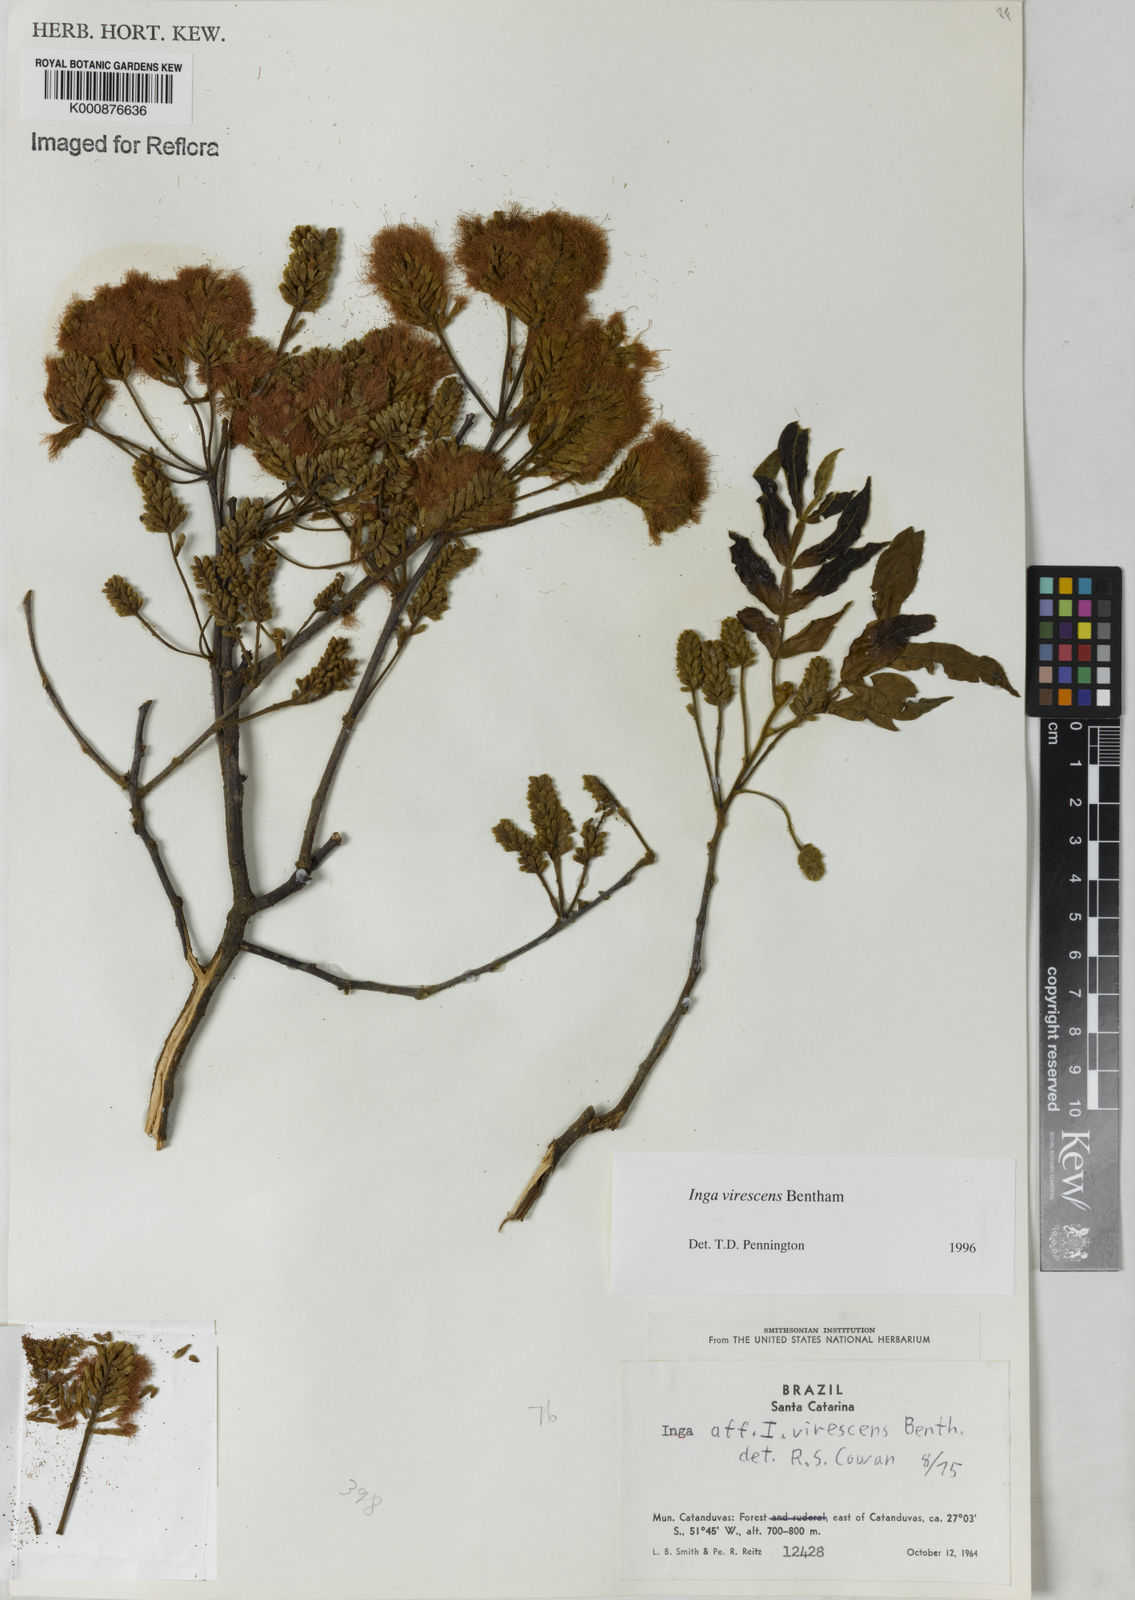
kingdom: Plantae
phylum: Tracheophyta
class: Magnoliopsida
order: Fabales
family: Fabaceae
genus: Inga
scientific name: Inga virescens
